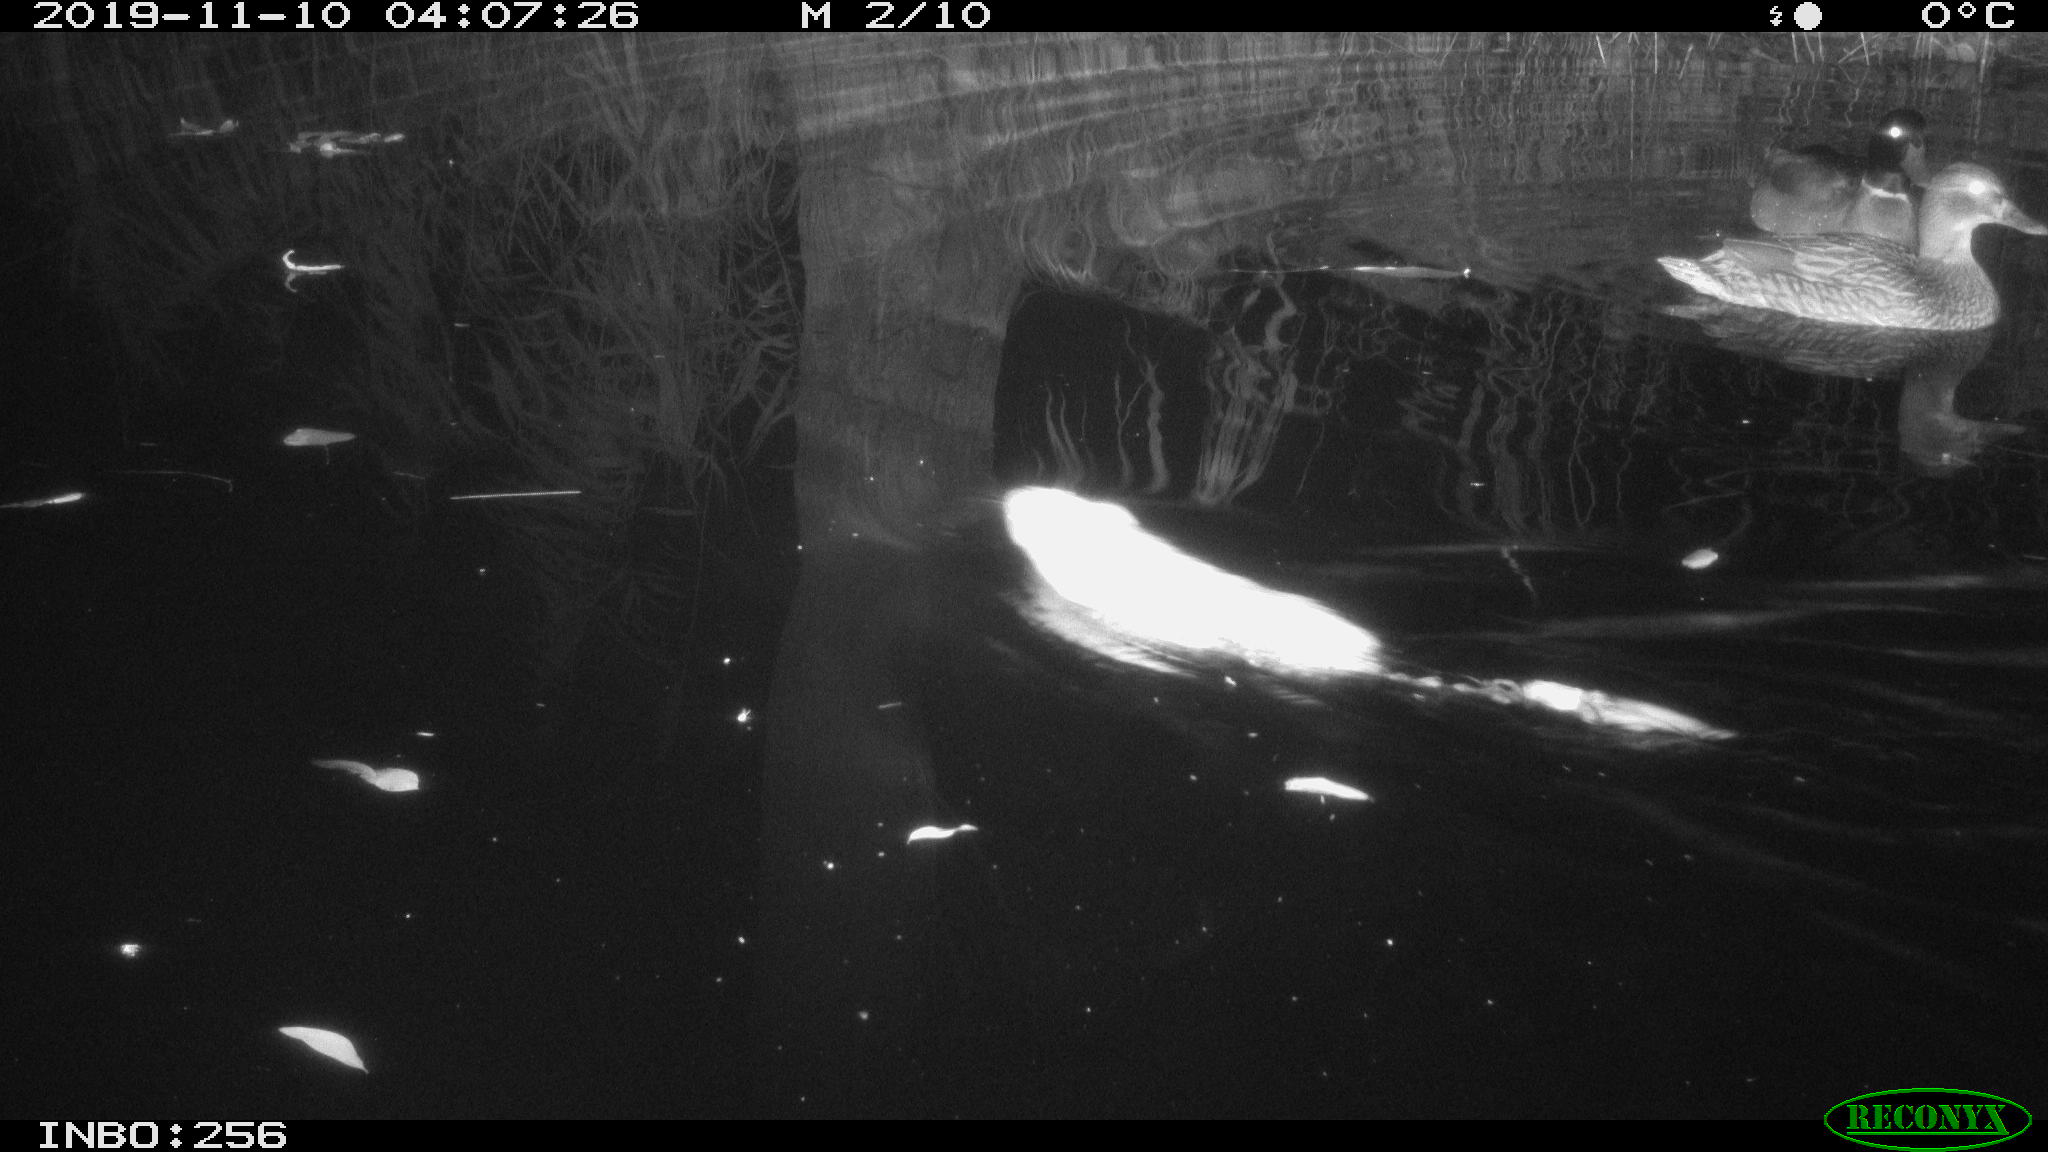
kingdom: Animalia
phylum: Chordata
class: Mammalia
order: Rodentia
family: Cricetidae
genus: Ondatra
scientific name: Ondatra zibethicus
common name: Muskrat
